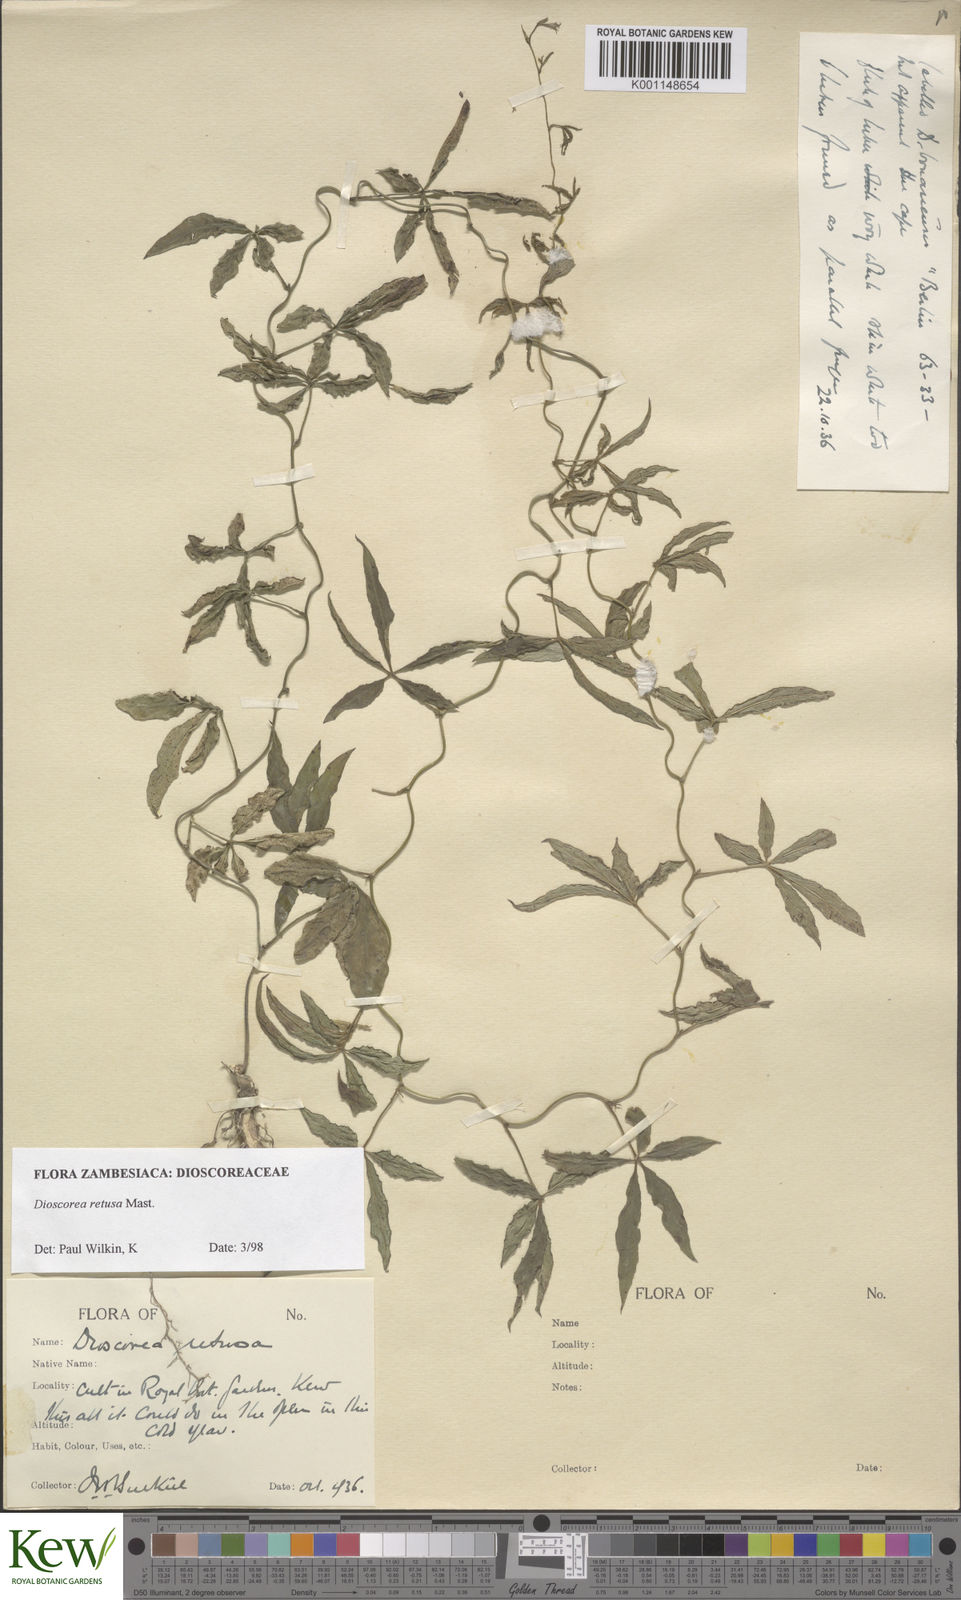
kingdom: Plantae
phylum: Tracheophyta
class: Liliopsida
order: Dioscoreales
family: Dioscoreaceae
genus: Dioscorea
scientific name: Dioscorea retusa
